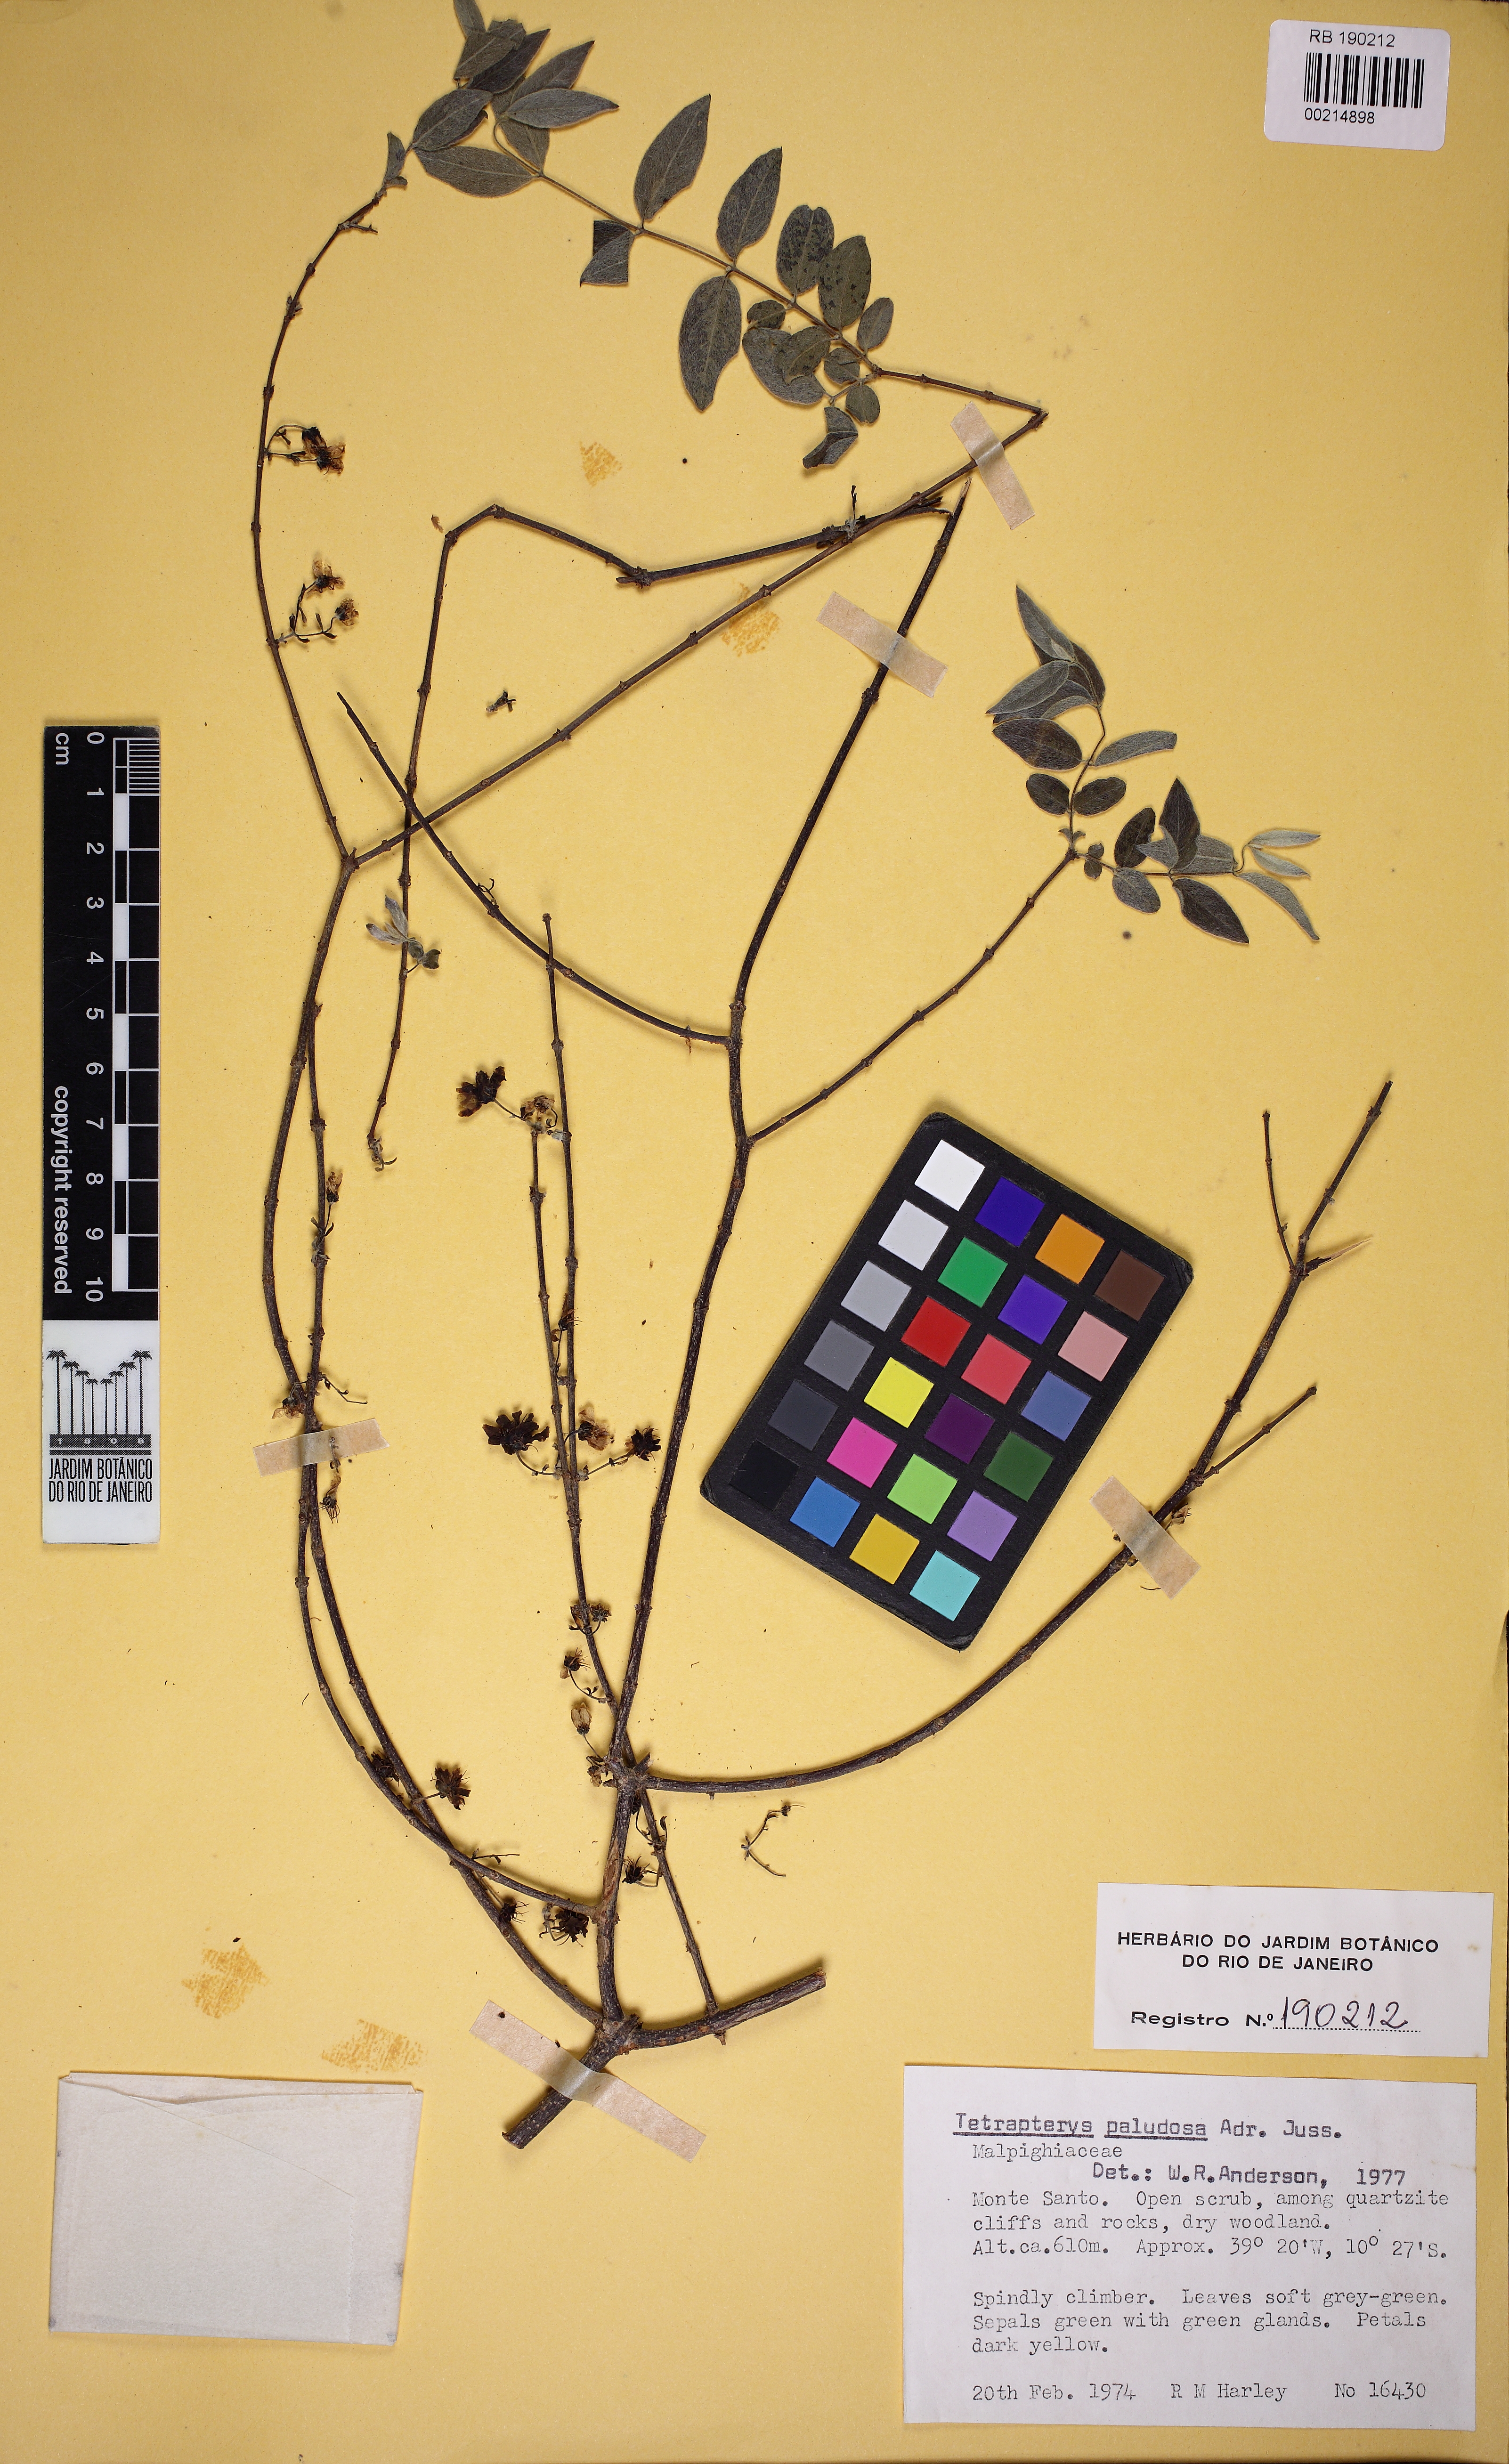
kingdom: Plantae
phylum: Tracheophyta
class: Magnoliopsida
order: Malpighiales
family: Malpighiaceae
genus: Glicophyllum
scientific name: Glicophyllum paludosum
